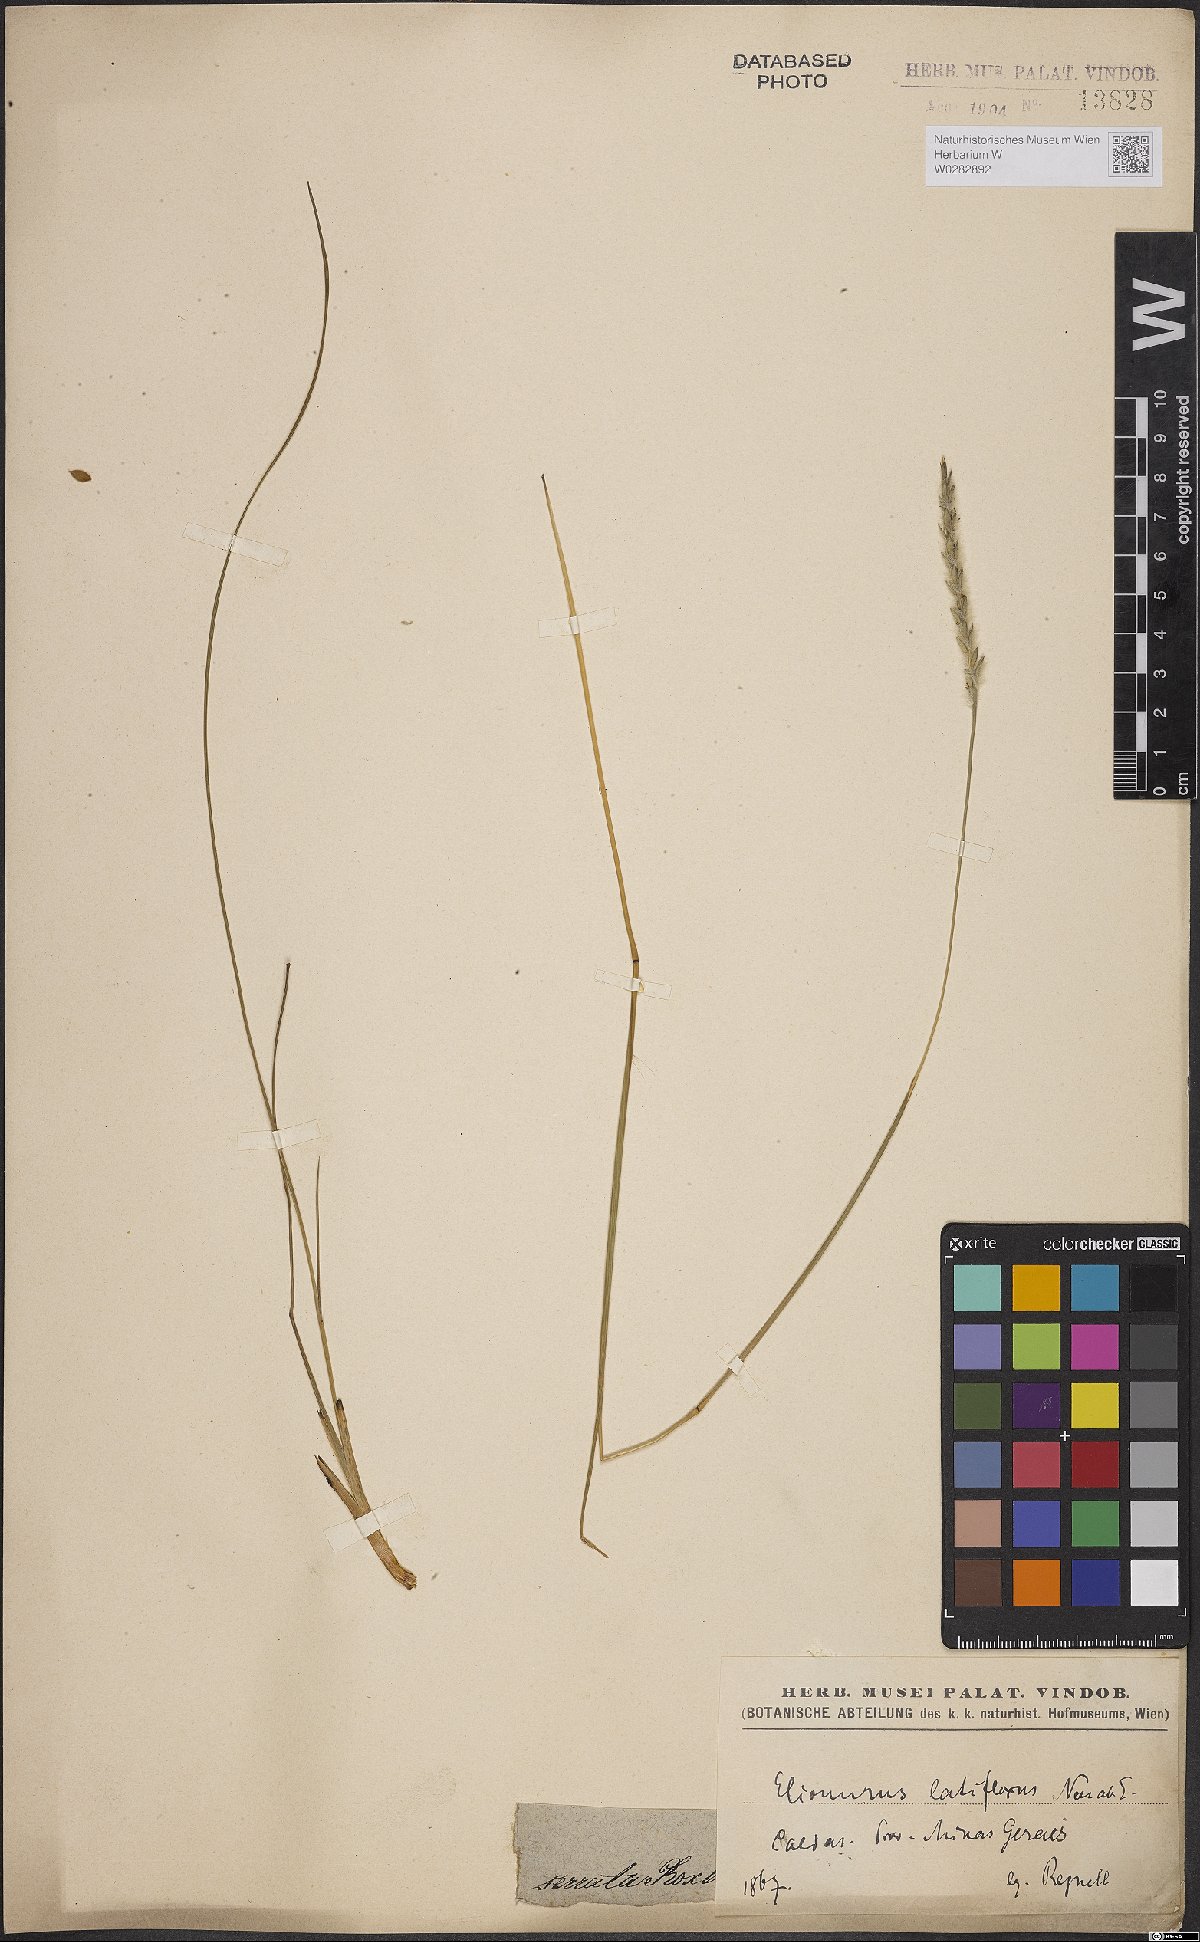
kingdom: Plantae
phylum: Tracheophyta
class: Liliopsida
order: Poales
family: Poaceae
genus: Elionurus
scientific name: Elionurus muticus
